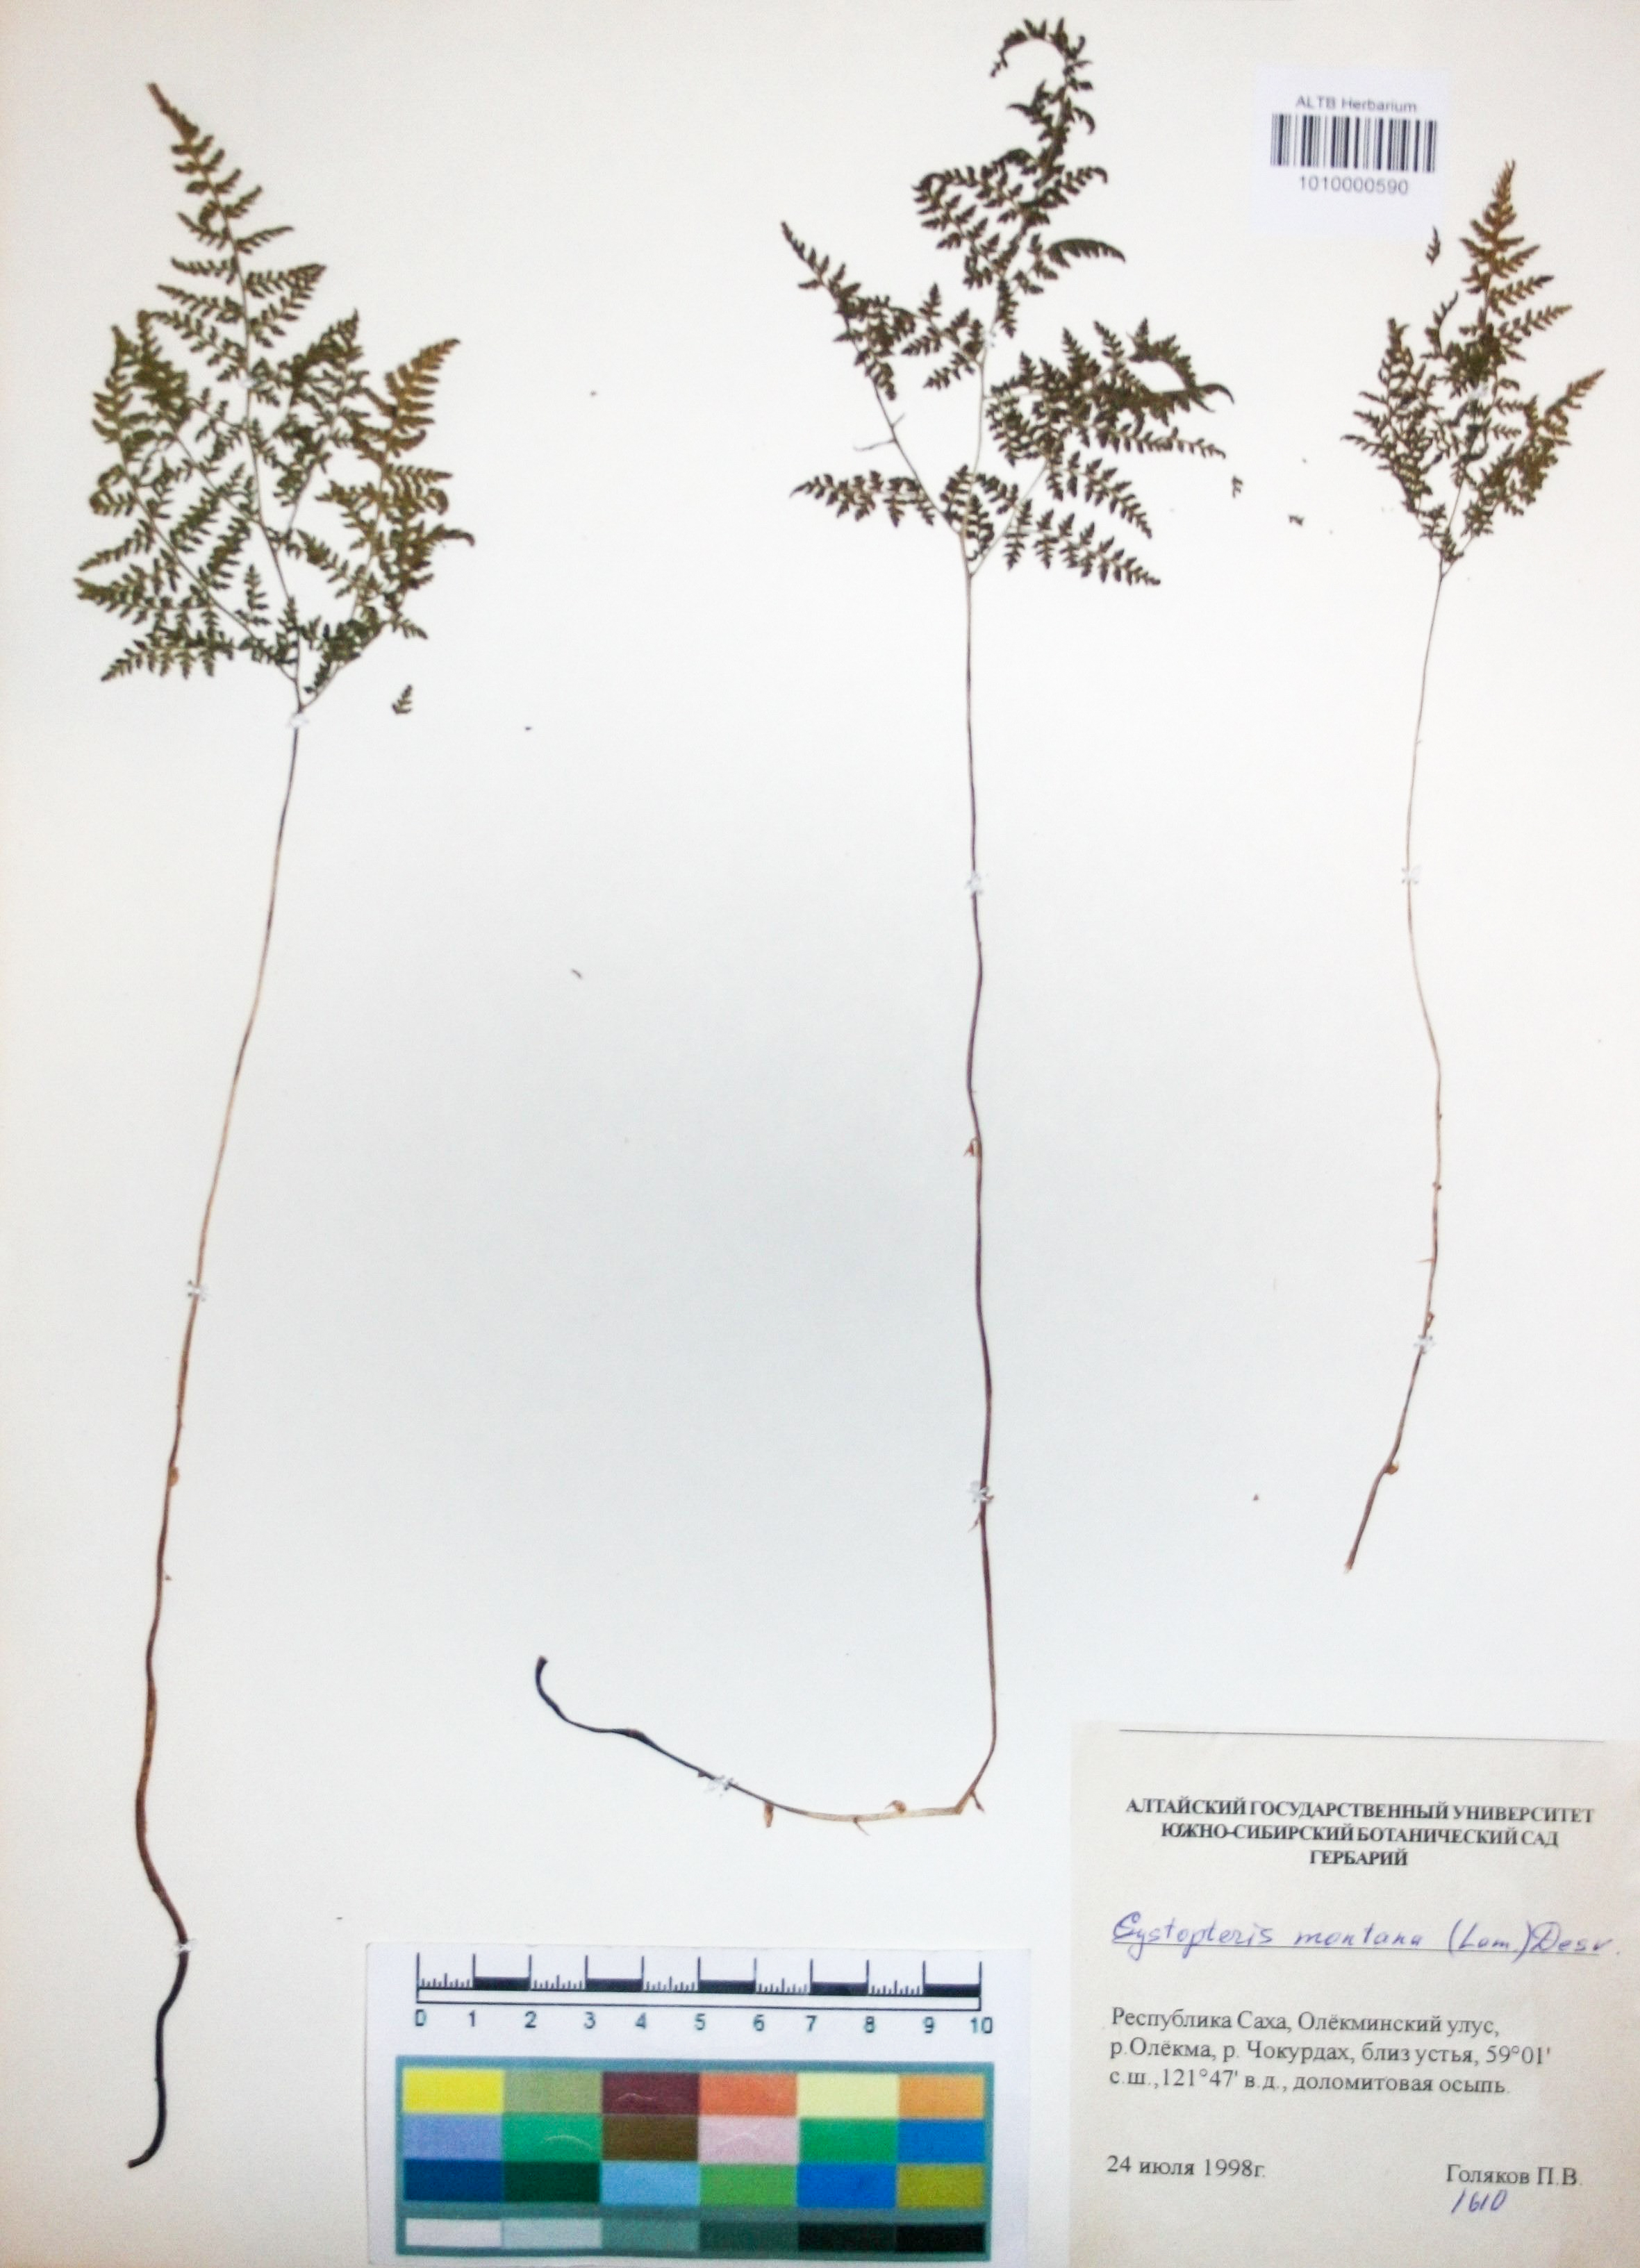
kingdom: Plantae
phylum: Tracheophyta
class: Polypodiopsida
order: Polypodiales
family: Cystopteridaceae
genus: Cystopteris
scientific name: Cystopteris montana
